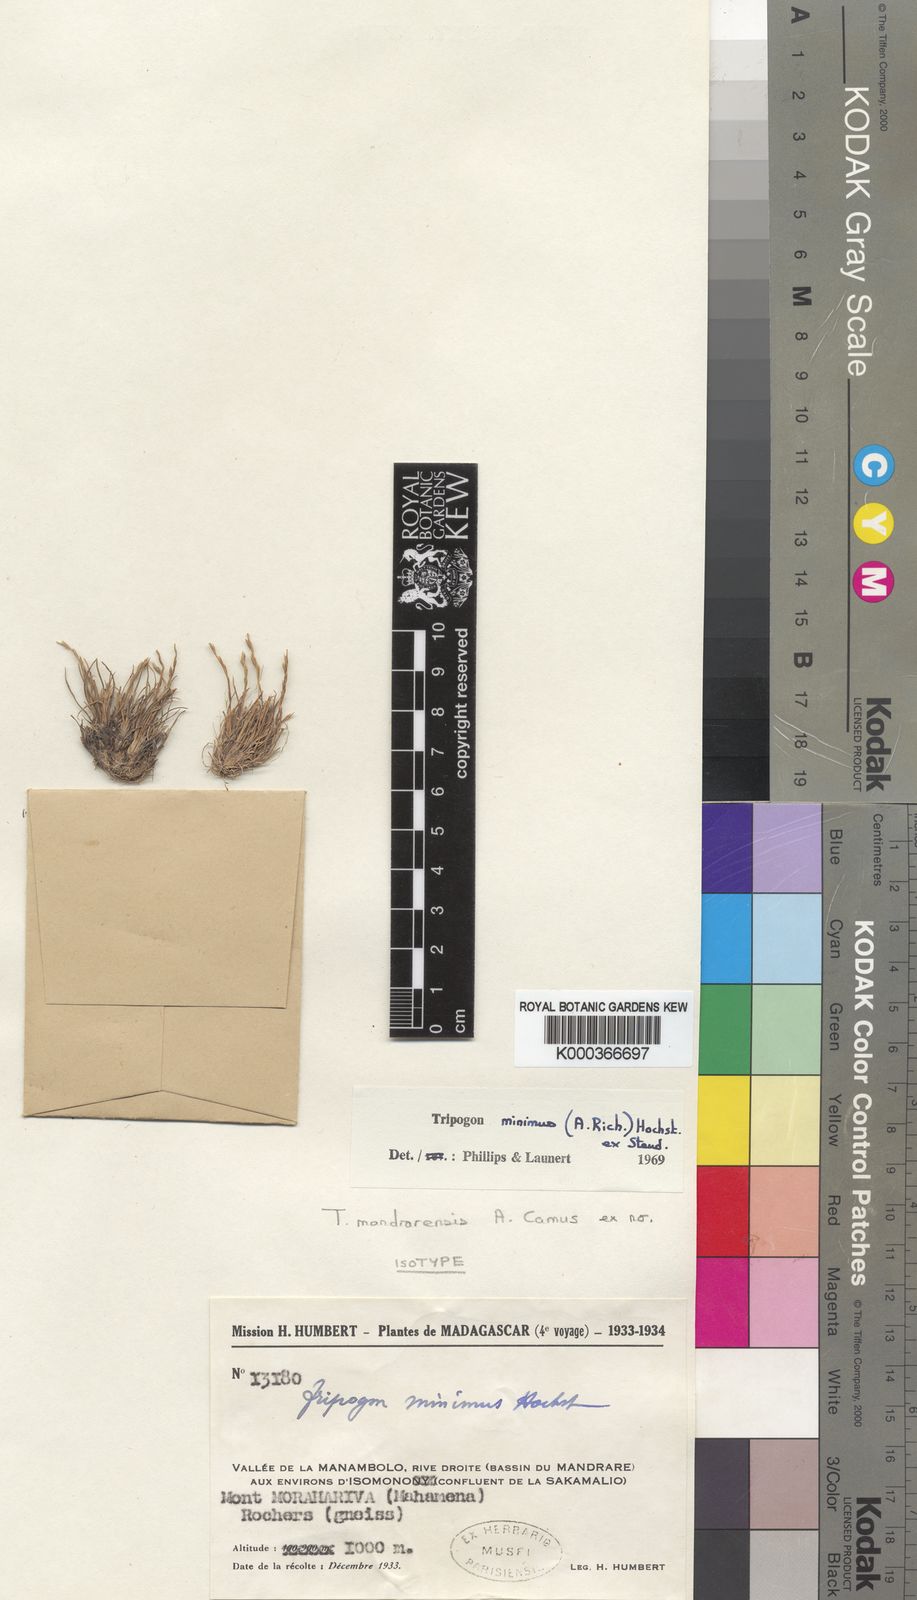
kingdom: Plantae
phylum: Tracheophyta
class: Liliopsida
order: Poales
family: Poaceae
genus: Tripogonella
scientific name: Tripogonella minima
